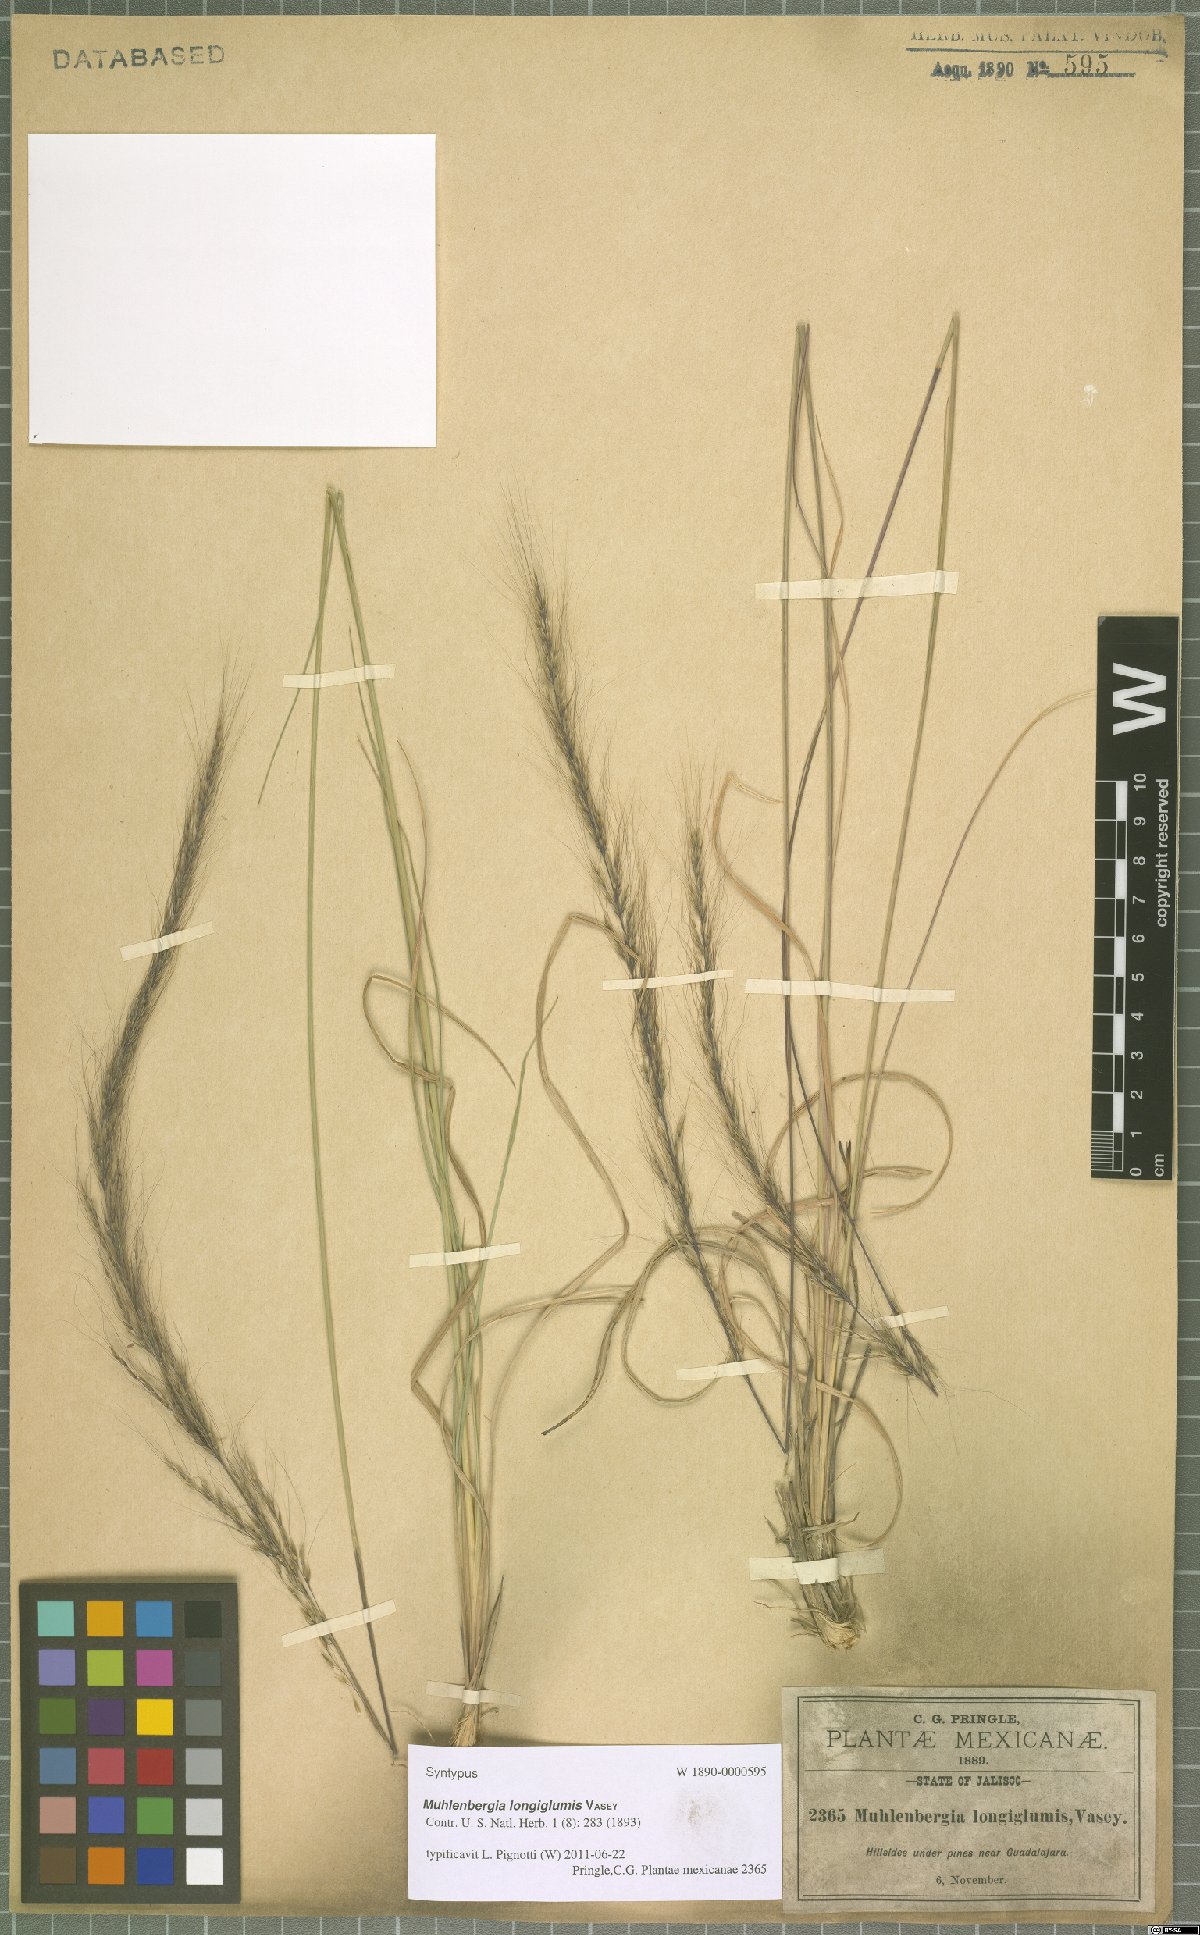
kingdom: Plantae
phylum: Tracheophyta
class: Liliopsida
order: Poales
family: Poaceae
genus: Muhlenbergia
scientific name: Muhlenbergia longiglumis
